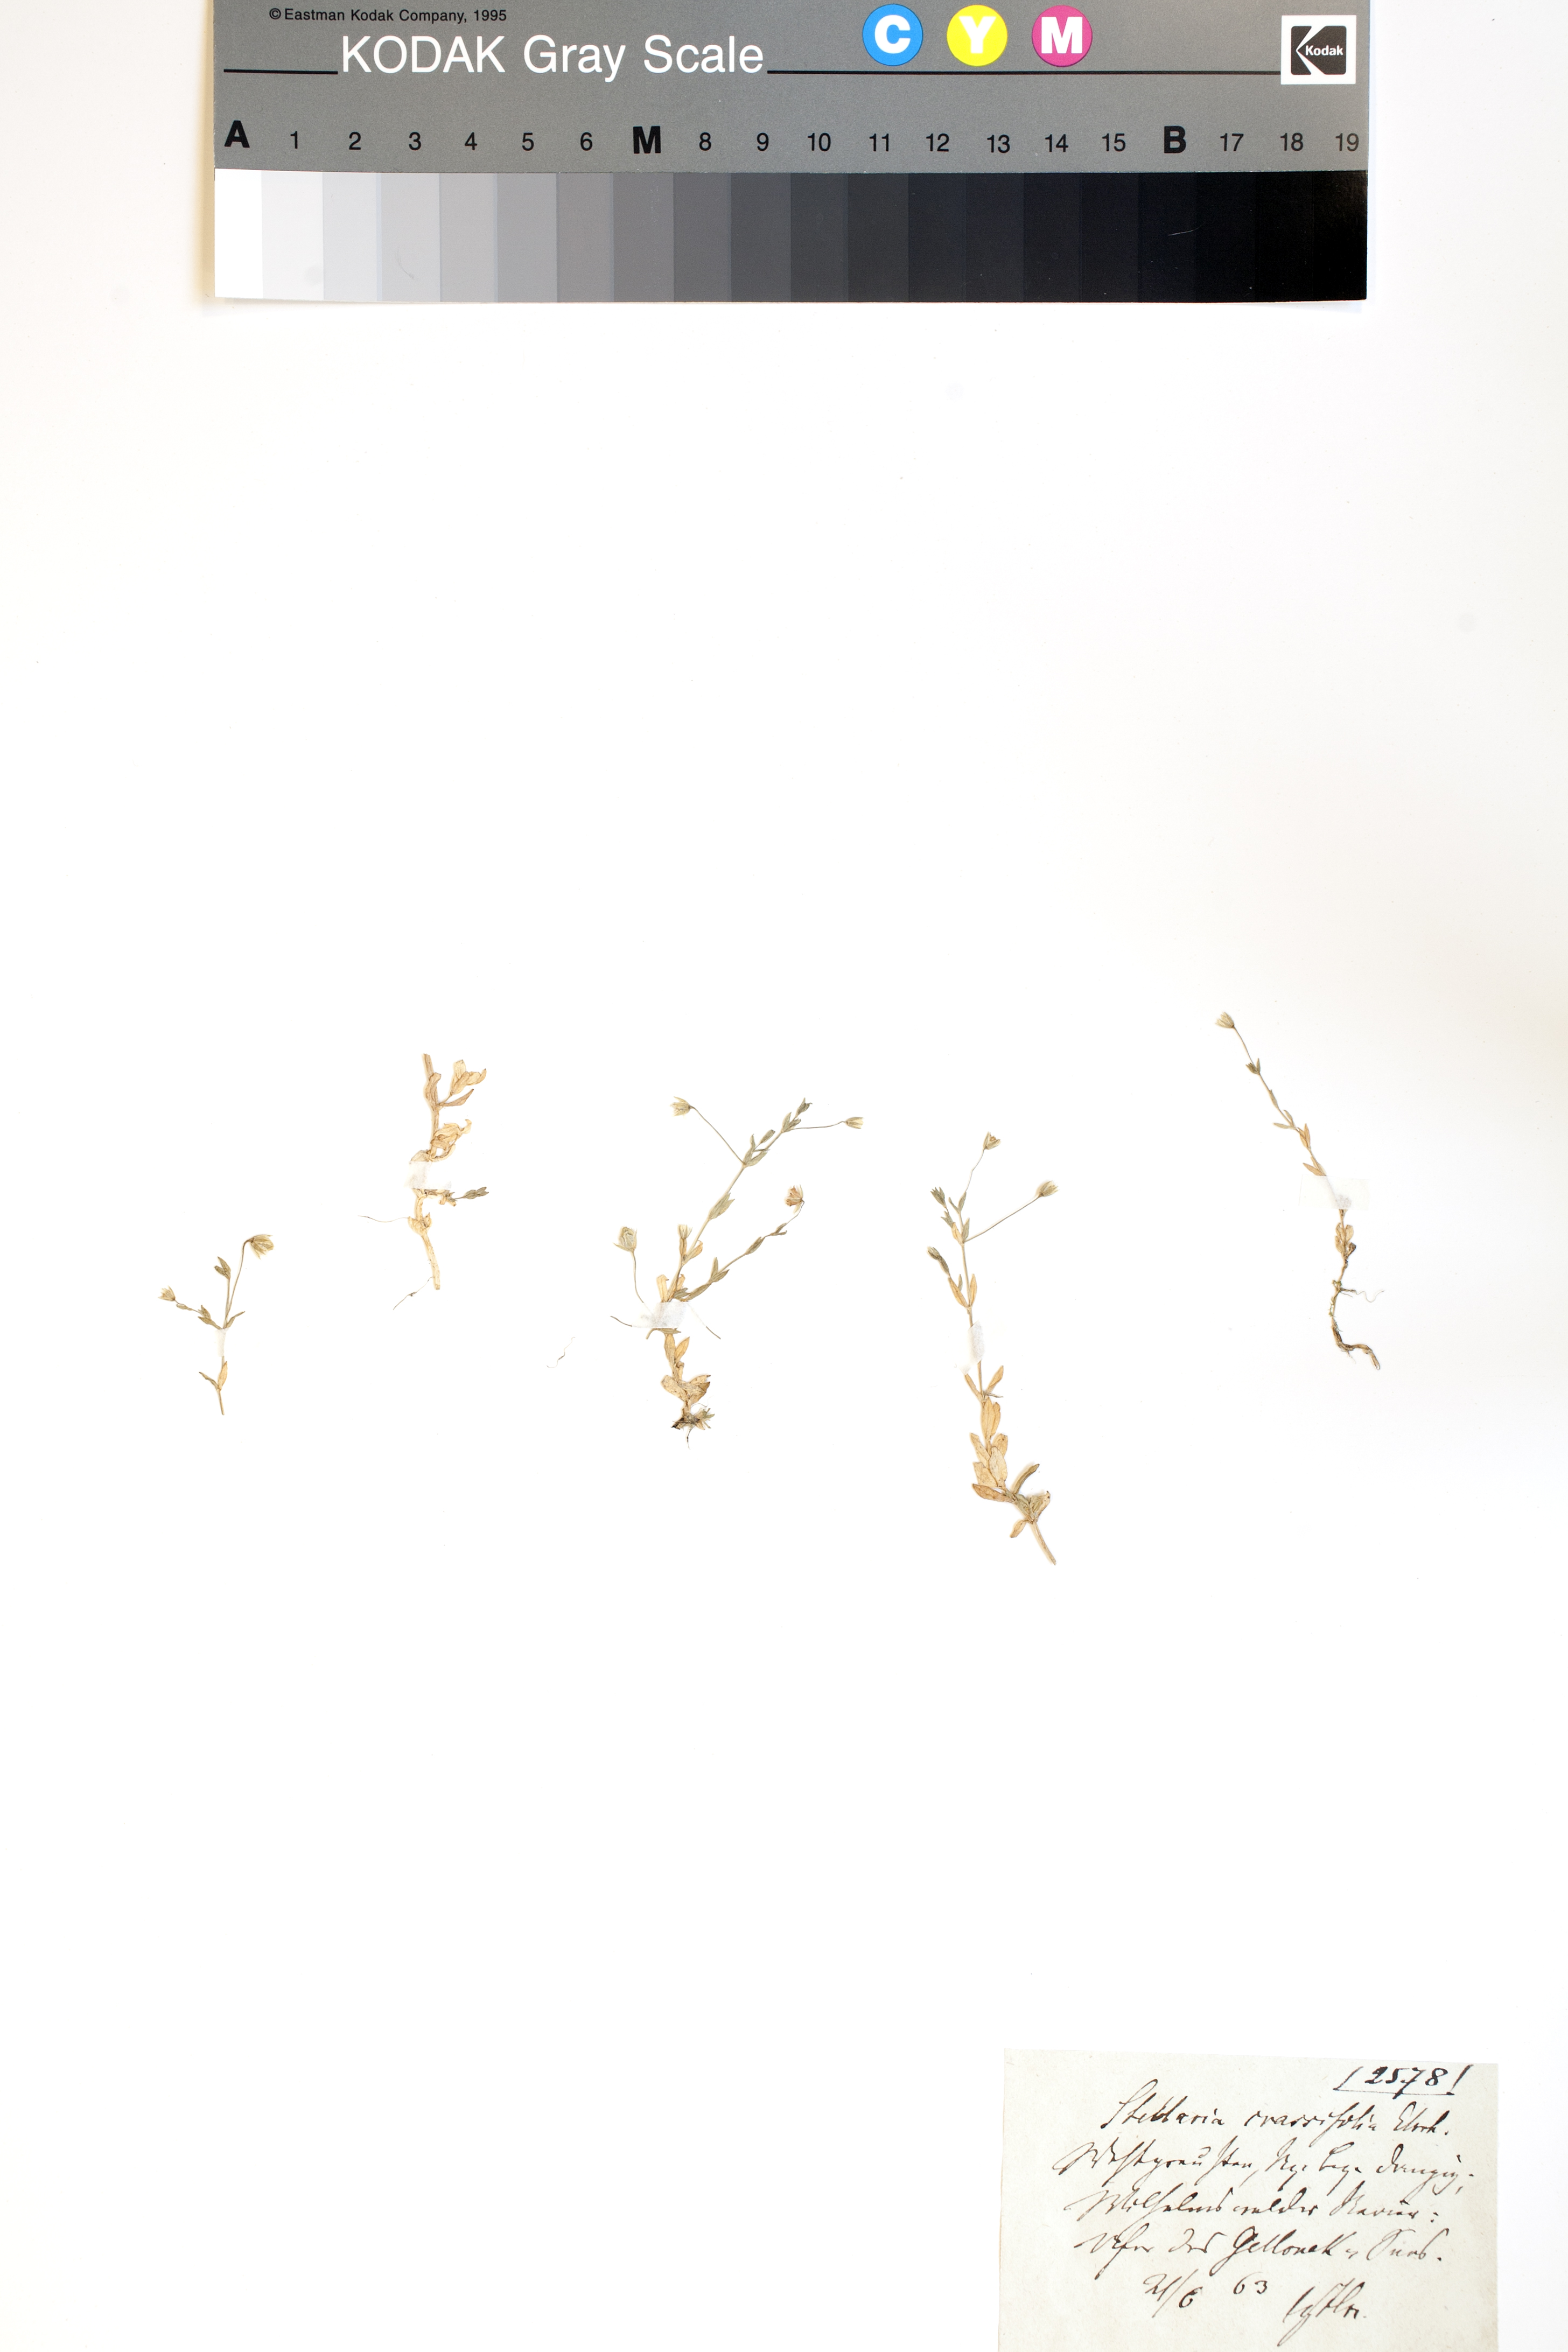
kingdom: Plantae
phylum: Tracheophyta
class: Magnoliopsida
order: Caryophyllales
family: Caryophyllaceae
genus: Stellaria
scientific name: Stellaria crassifolia
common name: Fleshy starwort
